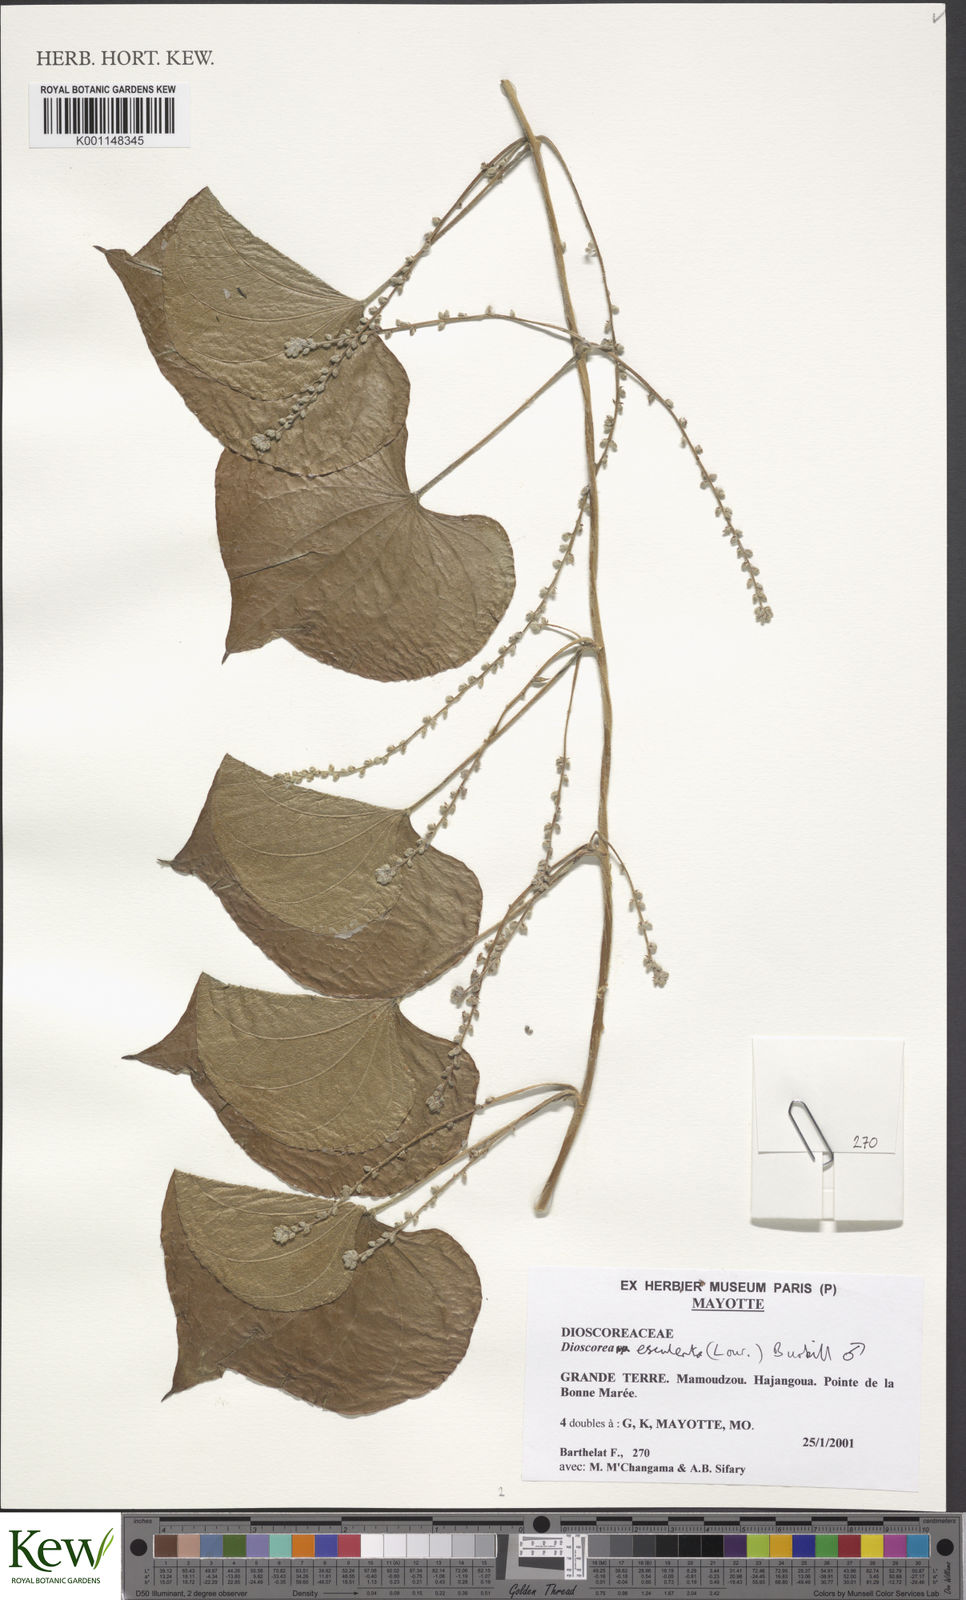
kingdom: Plantae
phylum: Tracheophyta
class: Liliopsida
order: Dioscoreales
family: Dioscoreaceae
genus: Dioscorea
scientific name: Dioscorea esculenta
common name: Chinese yam
